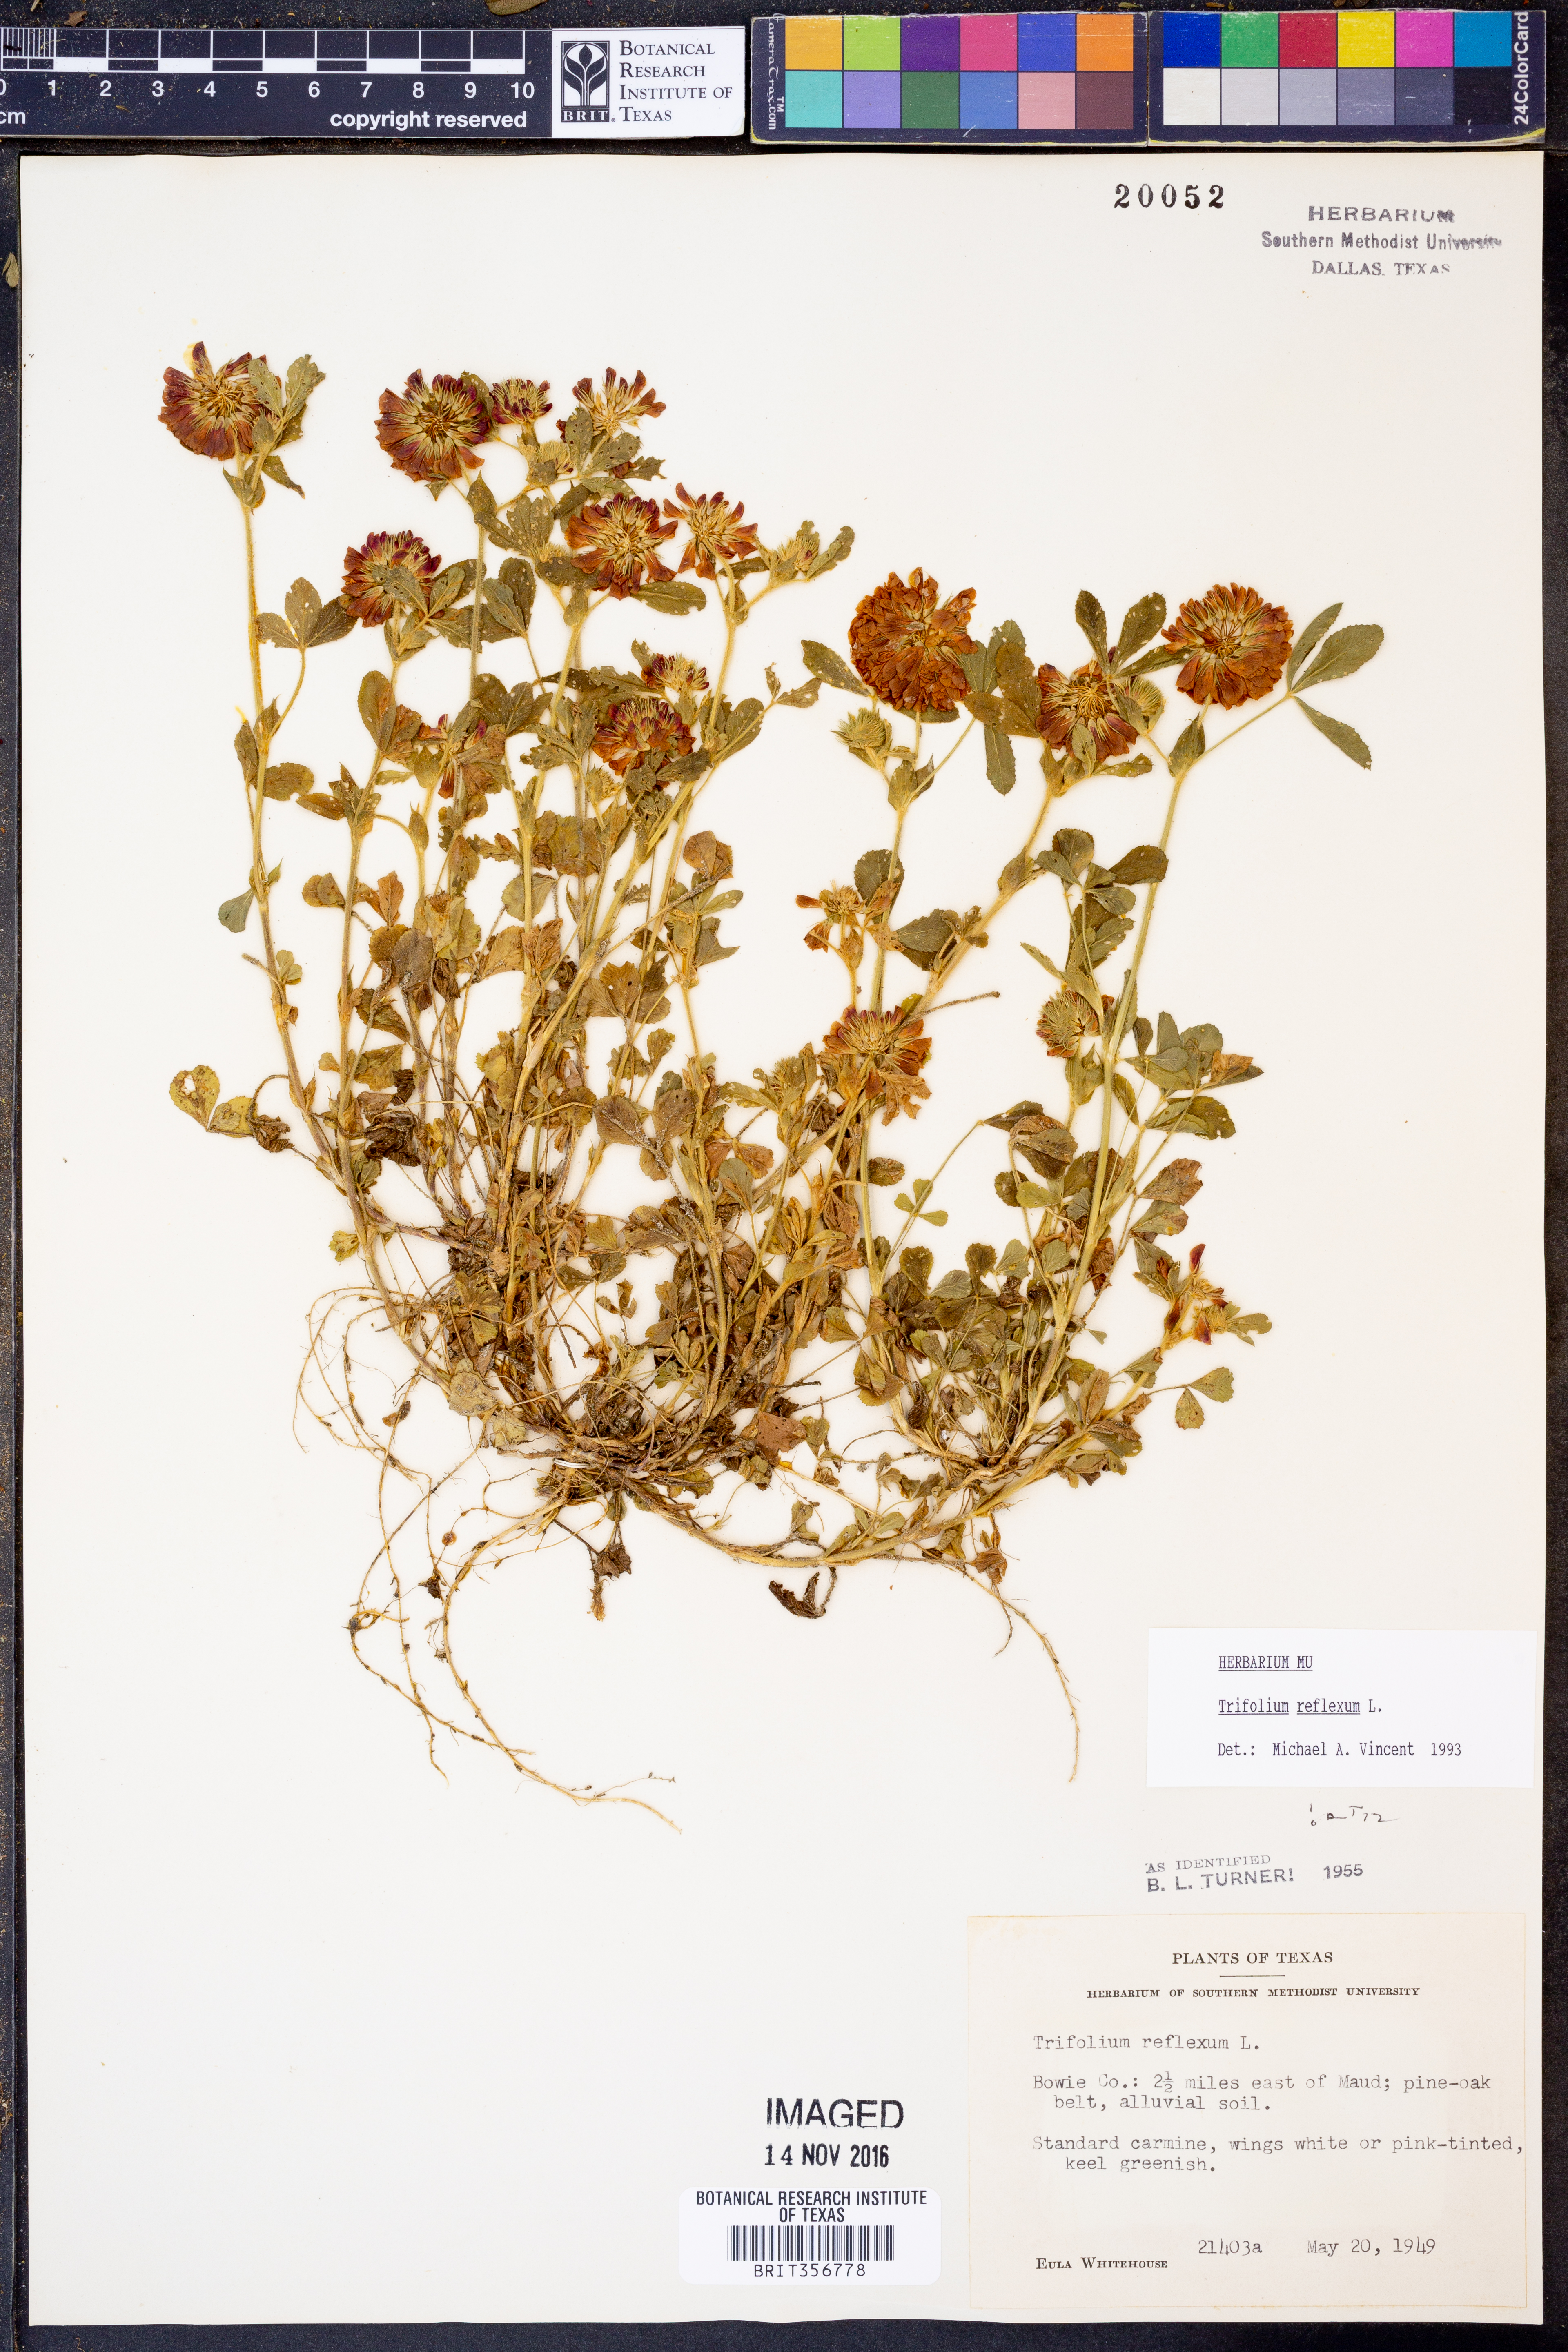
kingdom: Plantae
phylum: Tracheophyta
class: Magnoliopsida
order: Fabales
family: Fabaceae
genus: Trifolium
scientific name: Trifolium reflexum
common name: Buffalo clover
